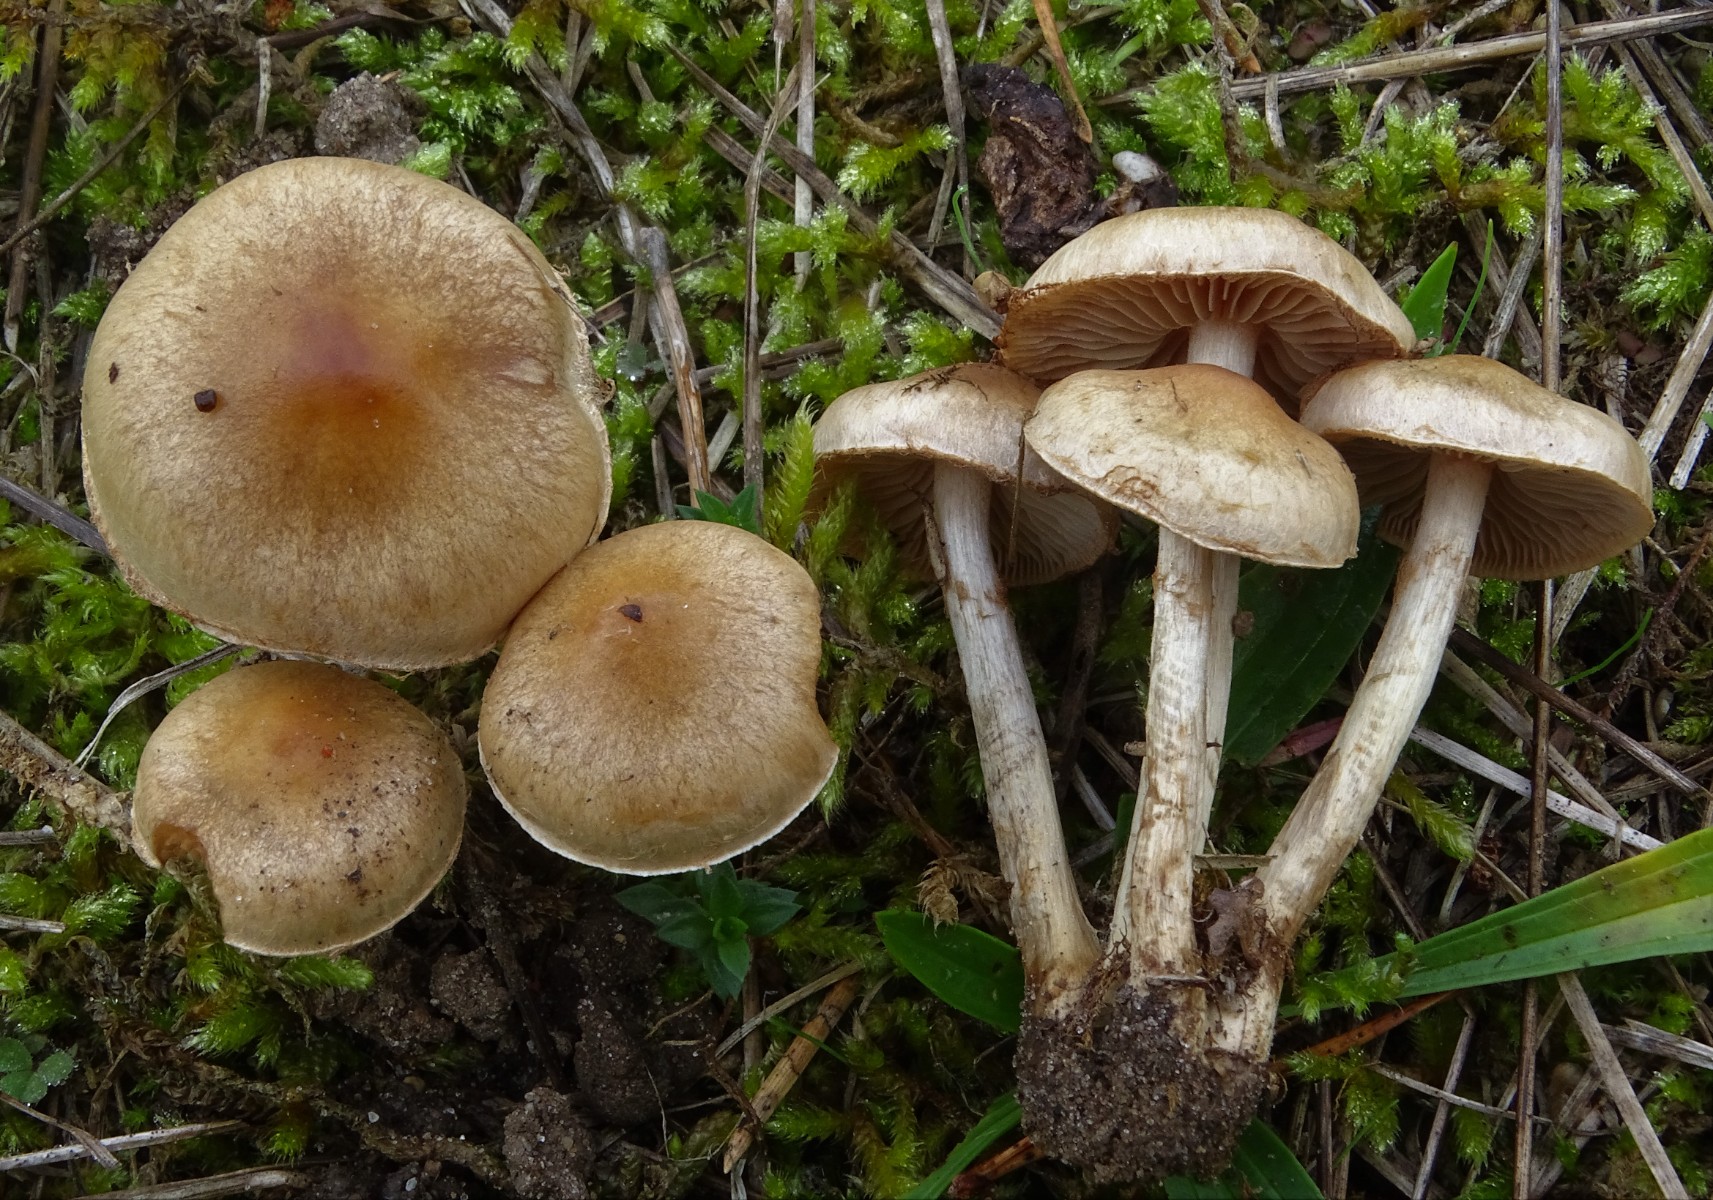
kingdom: Fungi
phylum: Basidiomycota
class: Agaricomycetes
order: Agaricales
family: Hymenogastraceae
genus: Hebeloma
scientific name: Hebeloma mesophaeum
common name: lerbrun tåreblad
